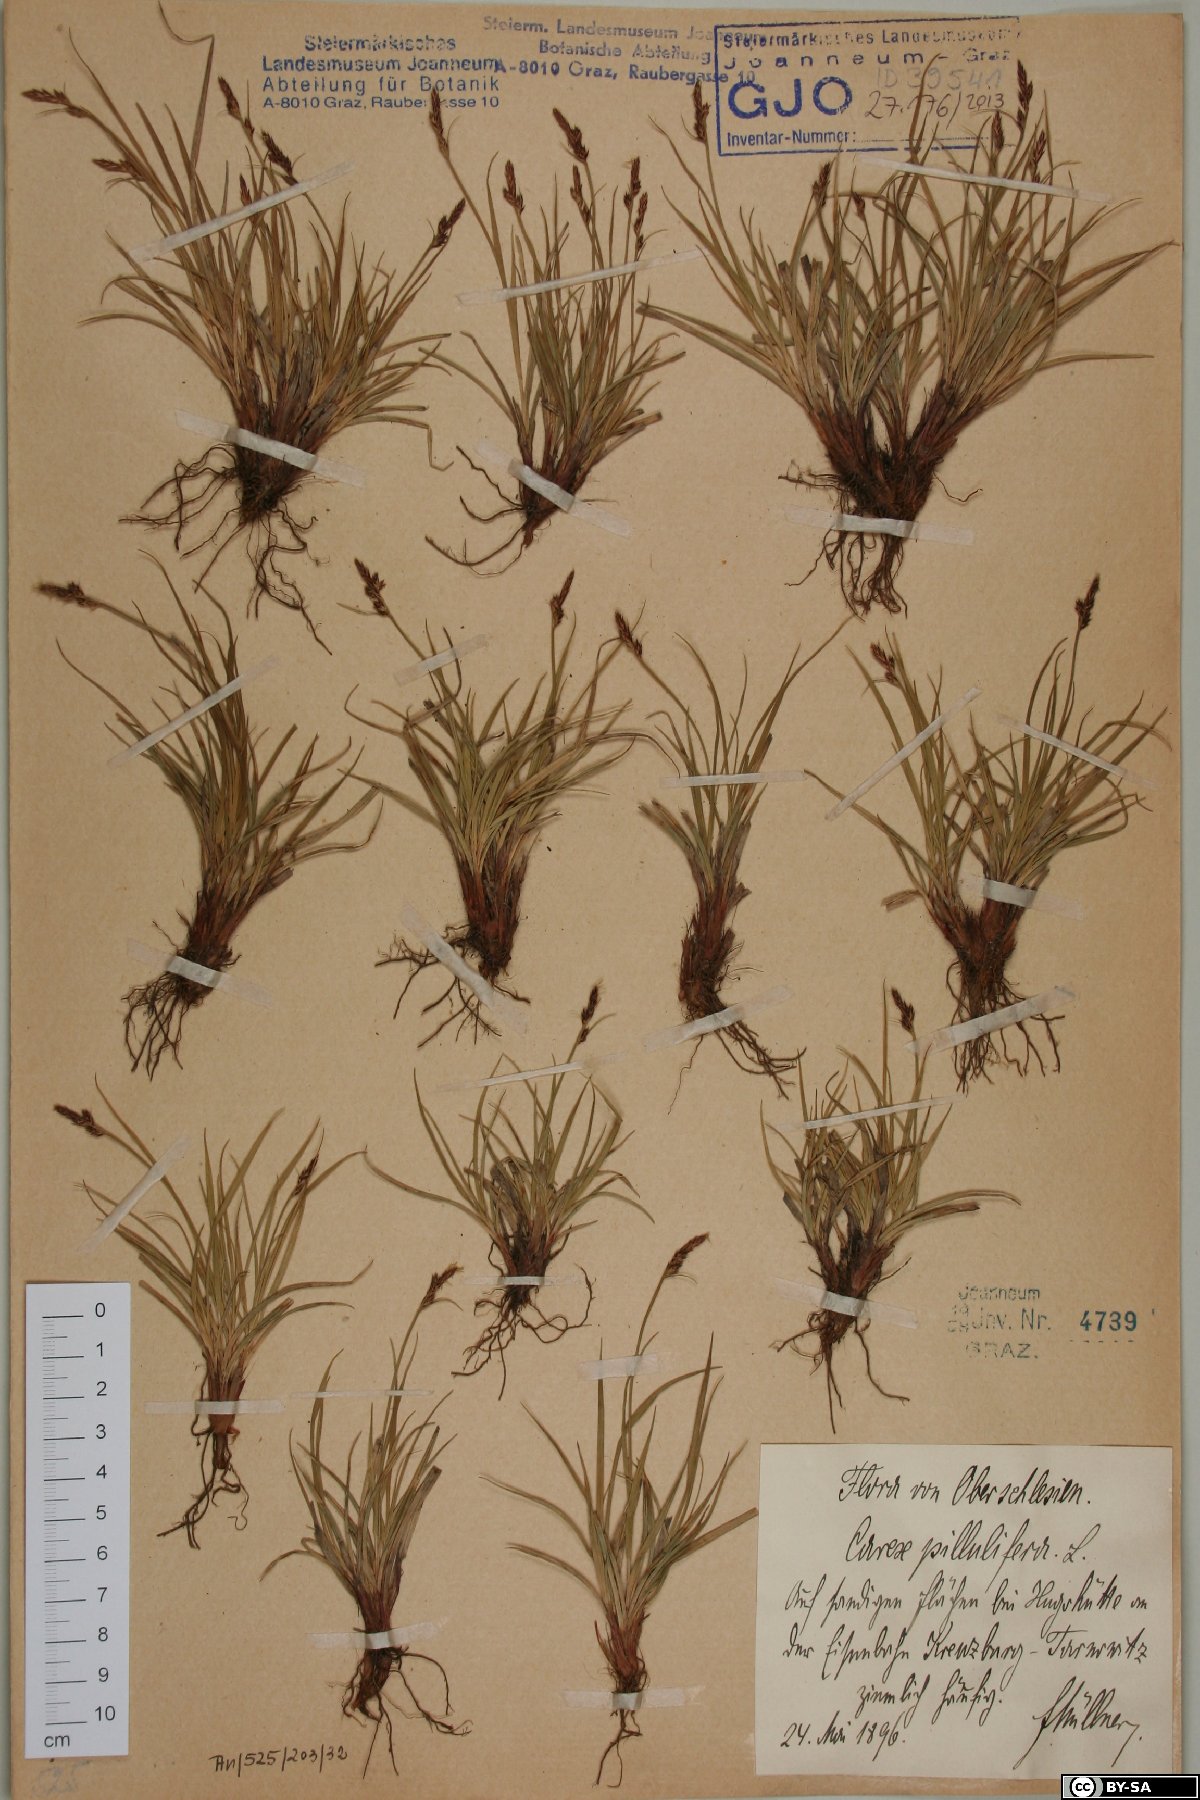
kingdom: Plantae
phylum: Tracheophyta
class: Liliopsida
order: Poales
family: Cyperaceae
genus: Carex
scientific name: Carex pilulifera
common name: Pill sedge
